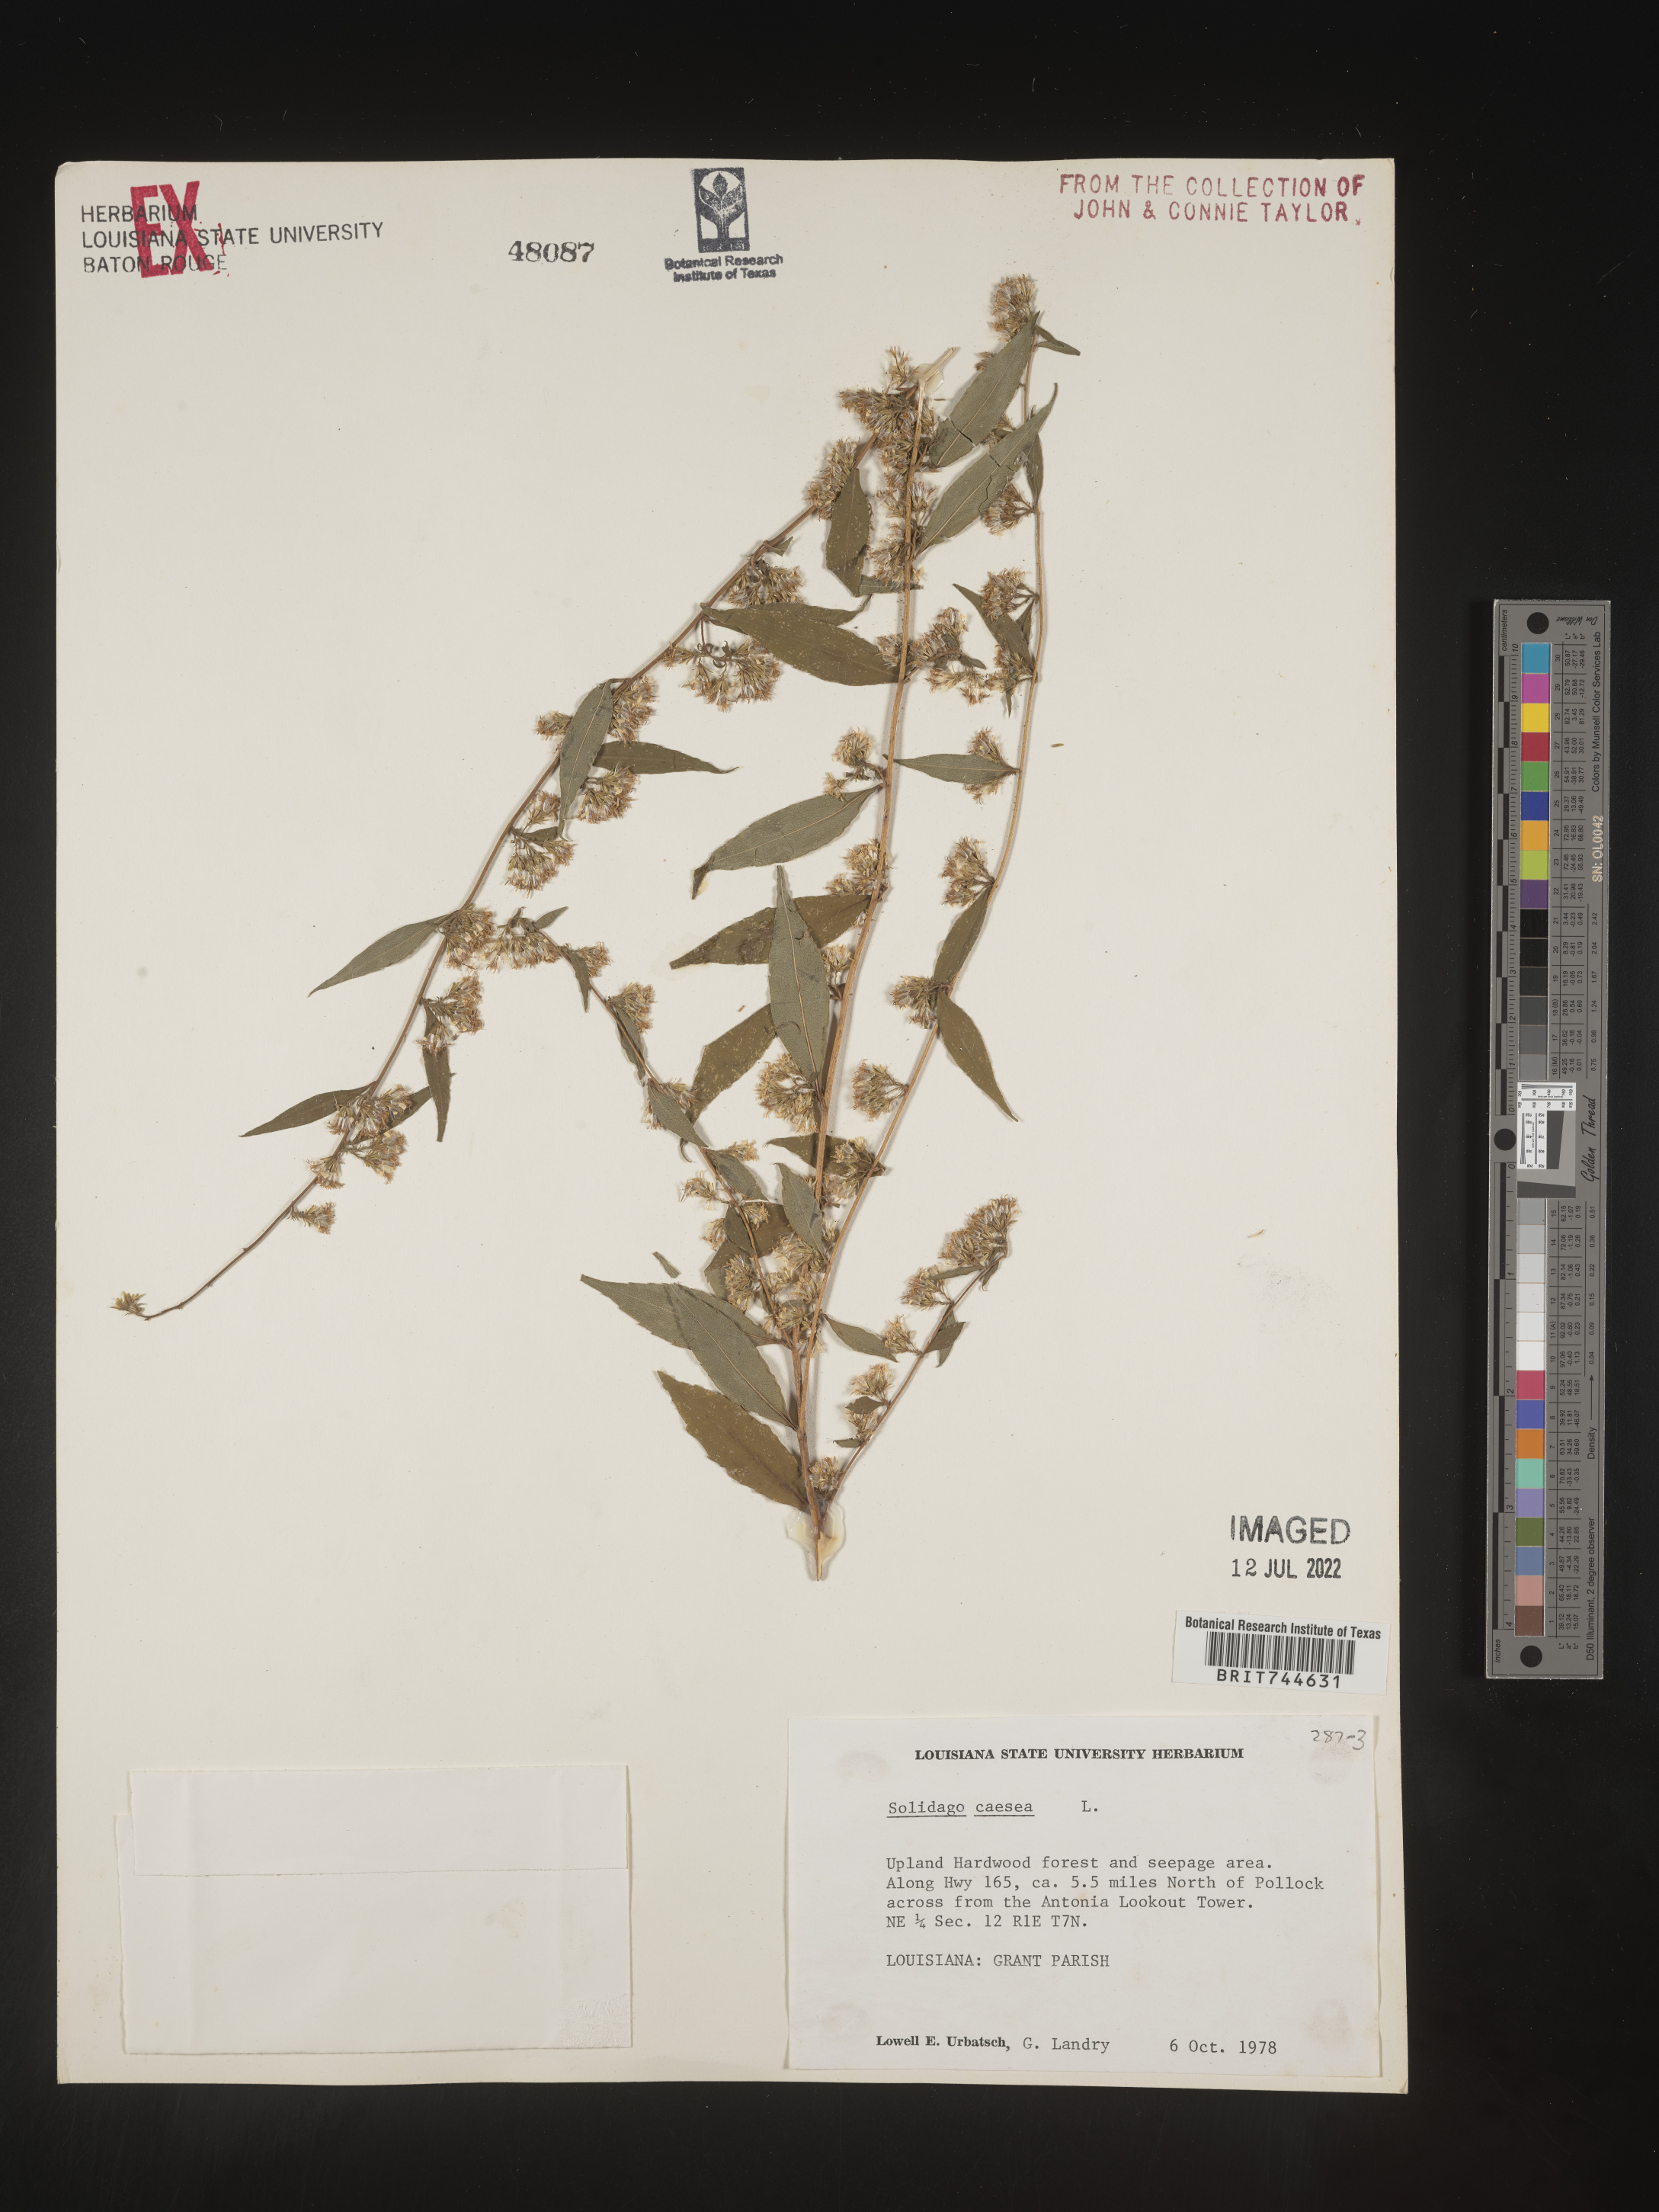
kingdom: Plantae
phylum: Tracheophyta
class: Magnoliopsida
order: Asterales
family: Asteraceae
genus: Solidago
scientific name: Solidago caesia
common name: Woodland goldenrod
